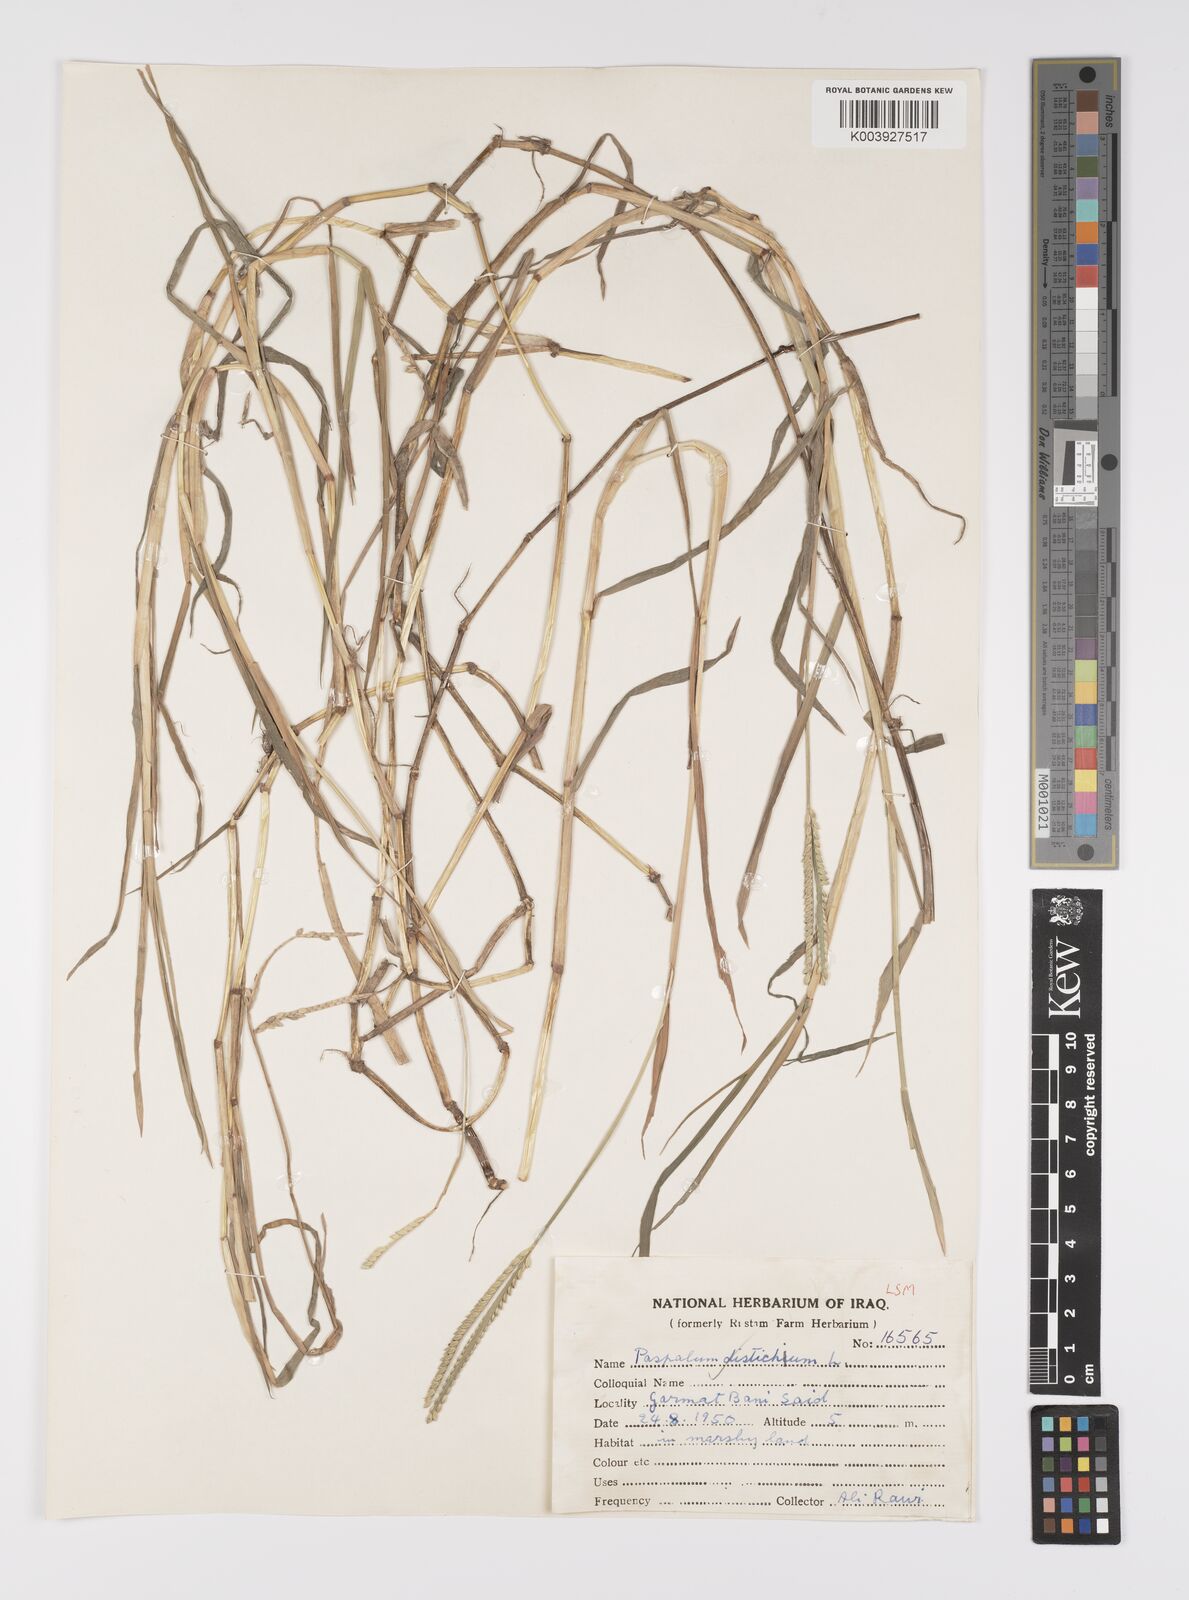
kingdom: Plantae
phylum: Tracheophyta
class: Liliopsida
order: Poales
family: Poaceae
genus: Paspalum
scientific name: Paspalum distichum
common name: Knotgrass
